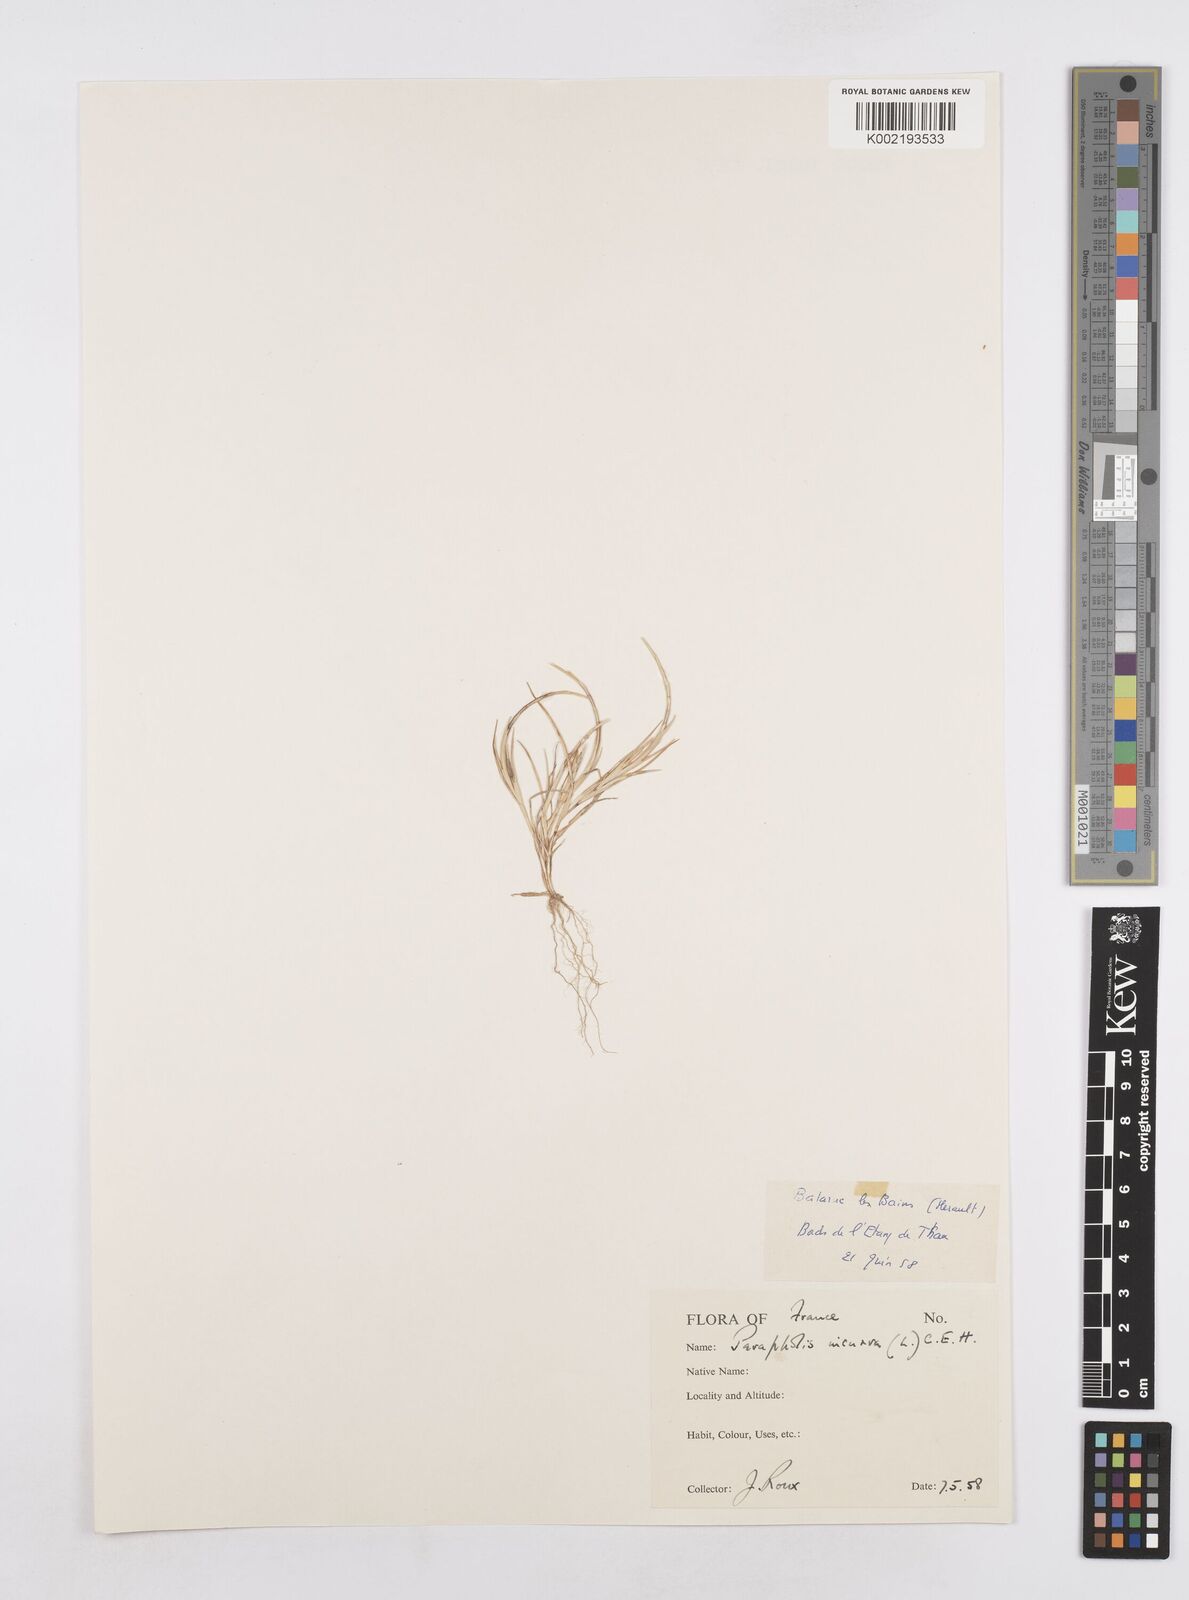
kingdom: Plantae
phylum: Tracheophyta
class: Liliopsida
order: Poales
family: Poaceae
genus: Parapholis
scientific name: Parapholis incurva
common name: Curved sicklegrass
